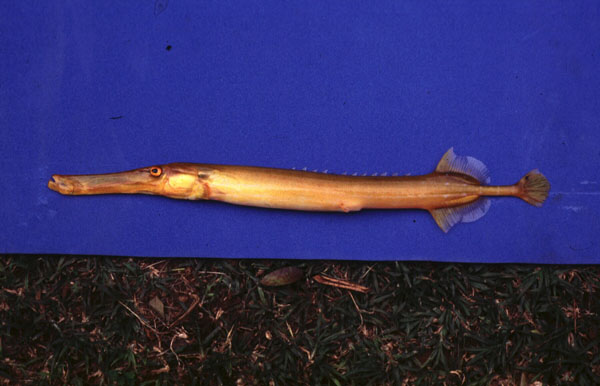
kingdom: Animalia
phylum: Chordata
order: Syngnathiformes
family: Aulostomidae
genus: Aulostomus
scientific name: Aulostomus chinensis
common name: Chinese trumpetfish
